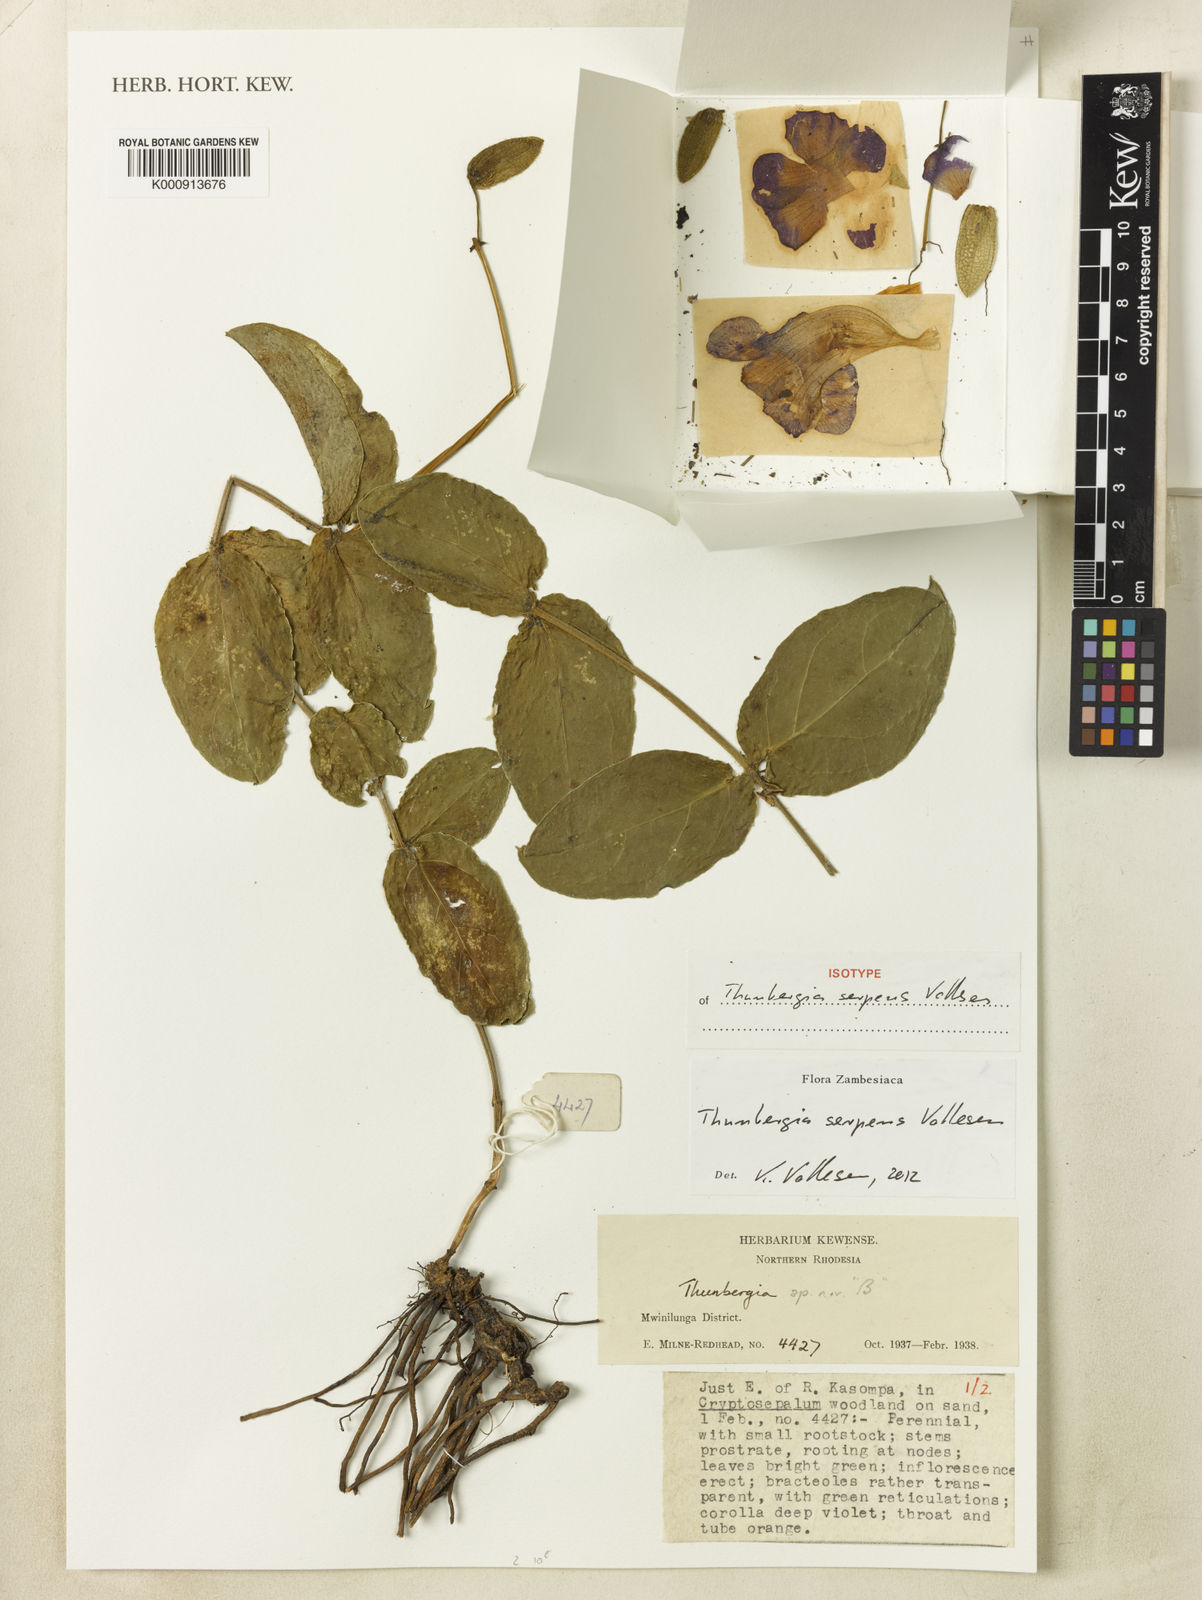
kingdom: Plantae
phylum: Tracheophyta
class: Magnoliopsida
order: Lamiales
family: Acanthaceae
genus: Thunbergia
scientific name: Thunbergia serpens
